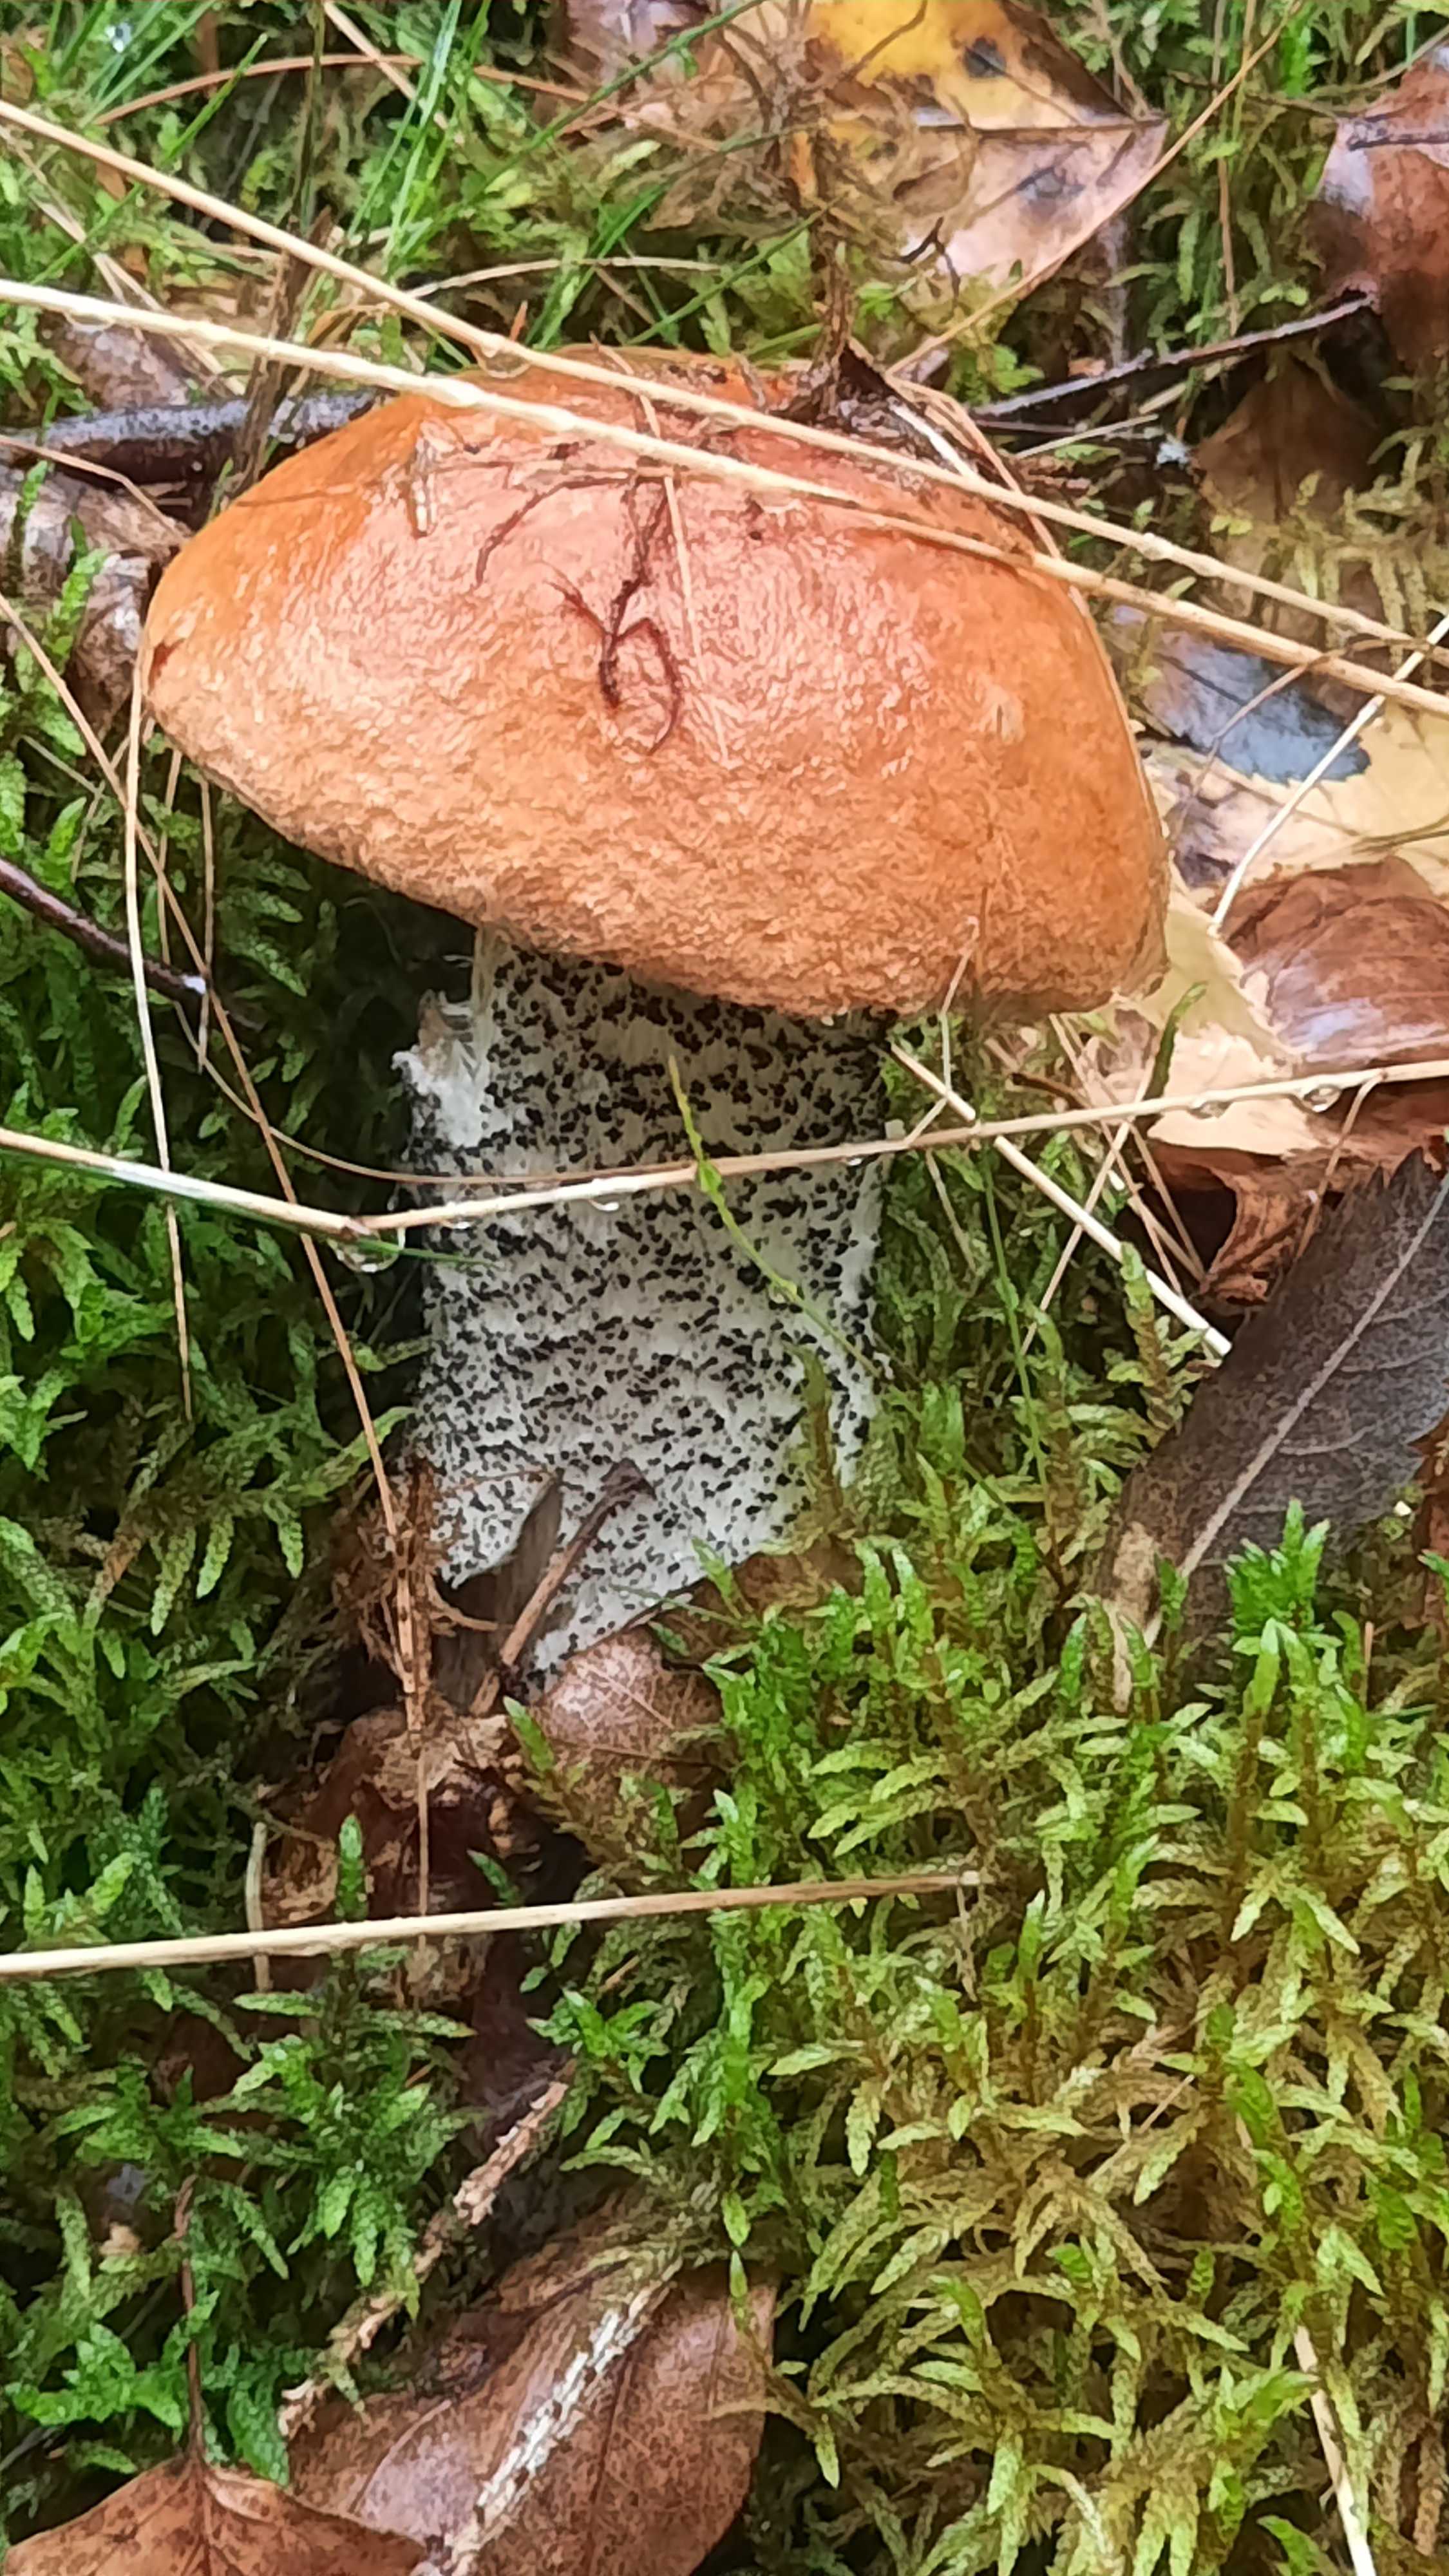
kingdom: Fungi
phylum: Basidiomycota
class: Agaricomycetes
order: Boletales
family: Boletaceae
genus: Leccinum
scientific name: Leccinum versipelle
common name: orange skælrørhat
